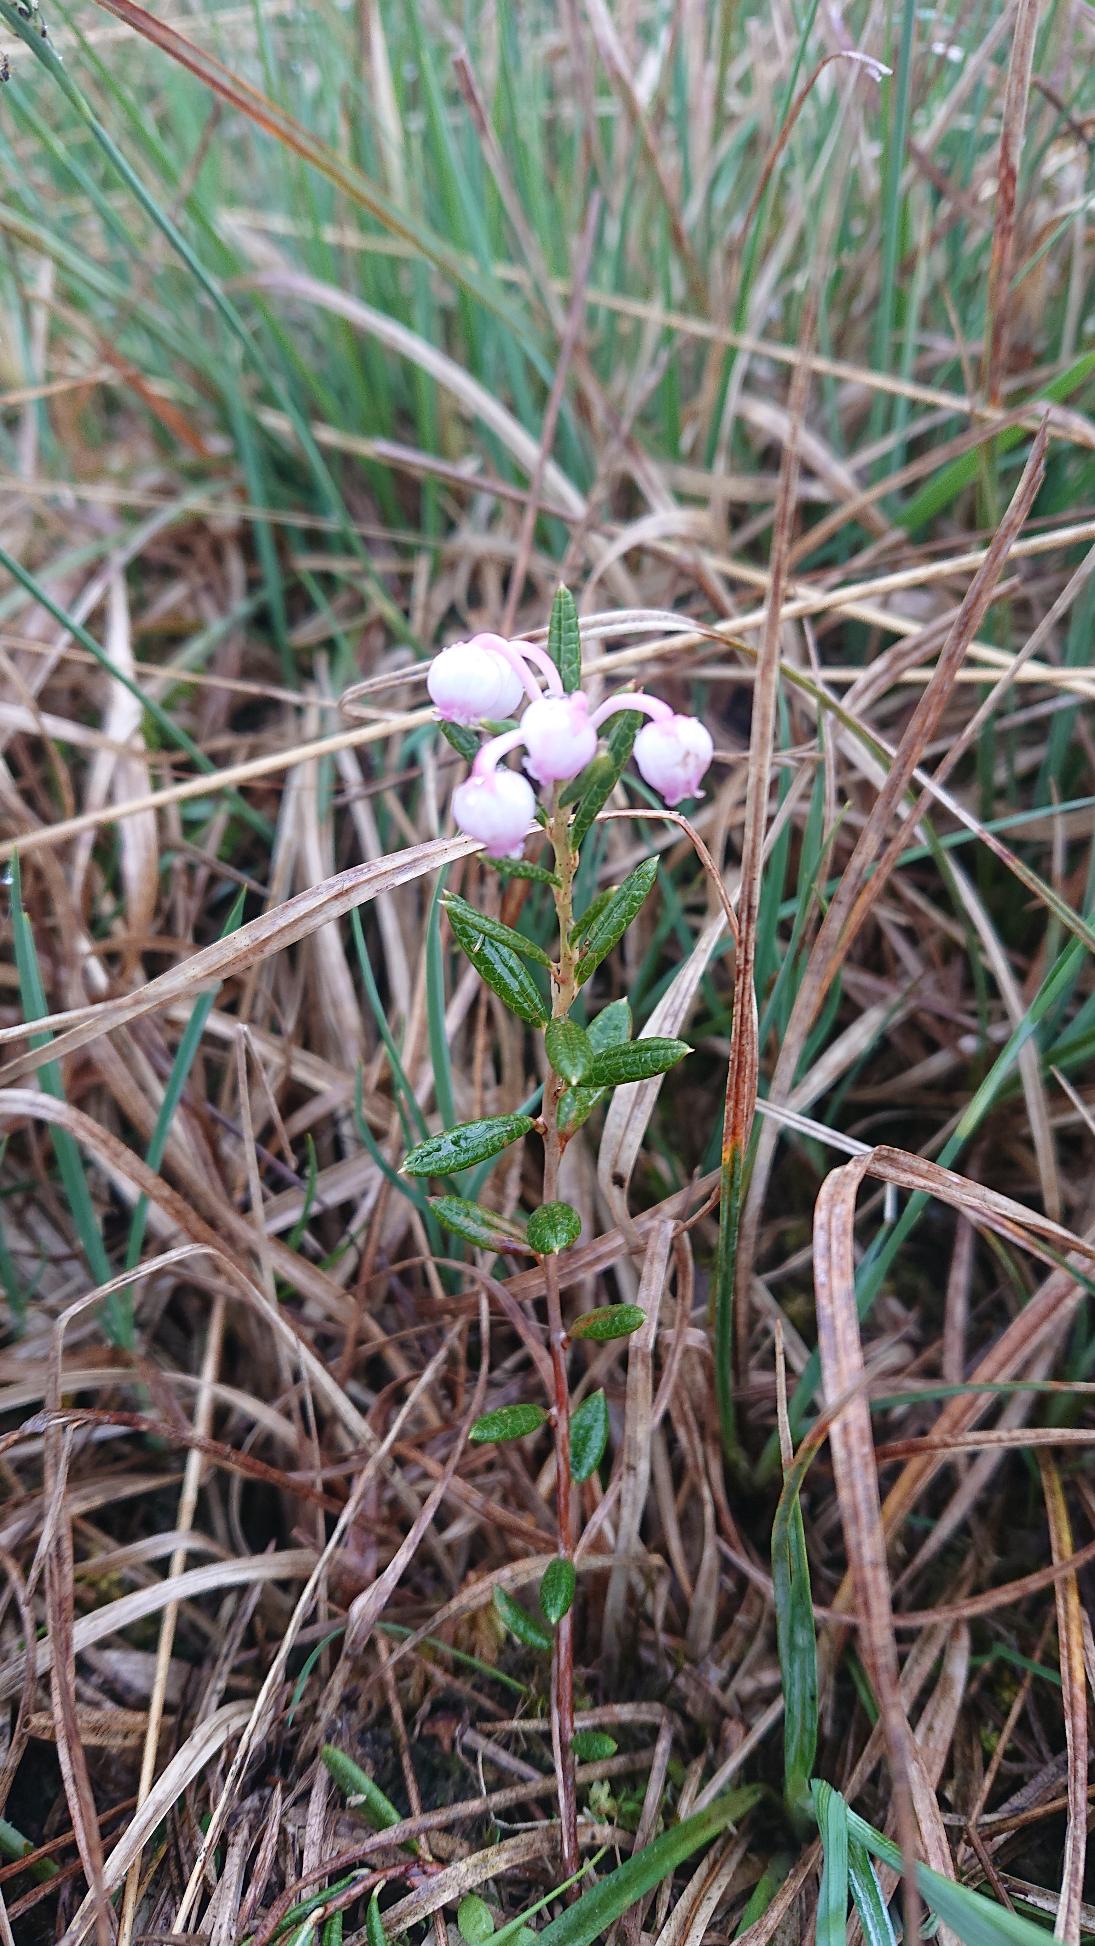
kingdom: Plantae
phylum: Tracheophyta
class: Magnoliopsida
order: Ericales
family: Ericaceae
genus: Andromeda
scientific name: Andromeda polifolia
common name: Rosmarinlyng
